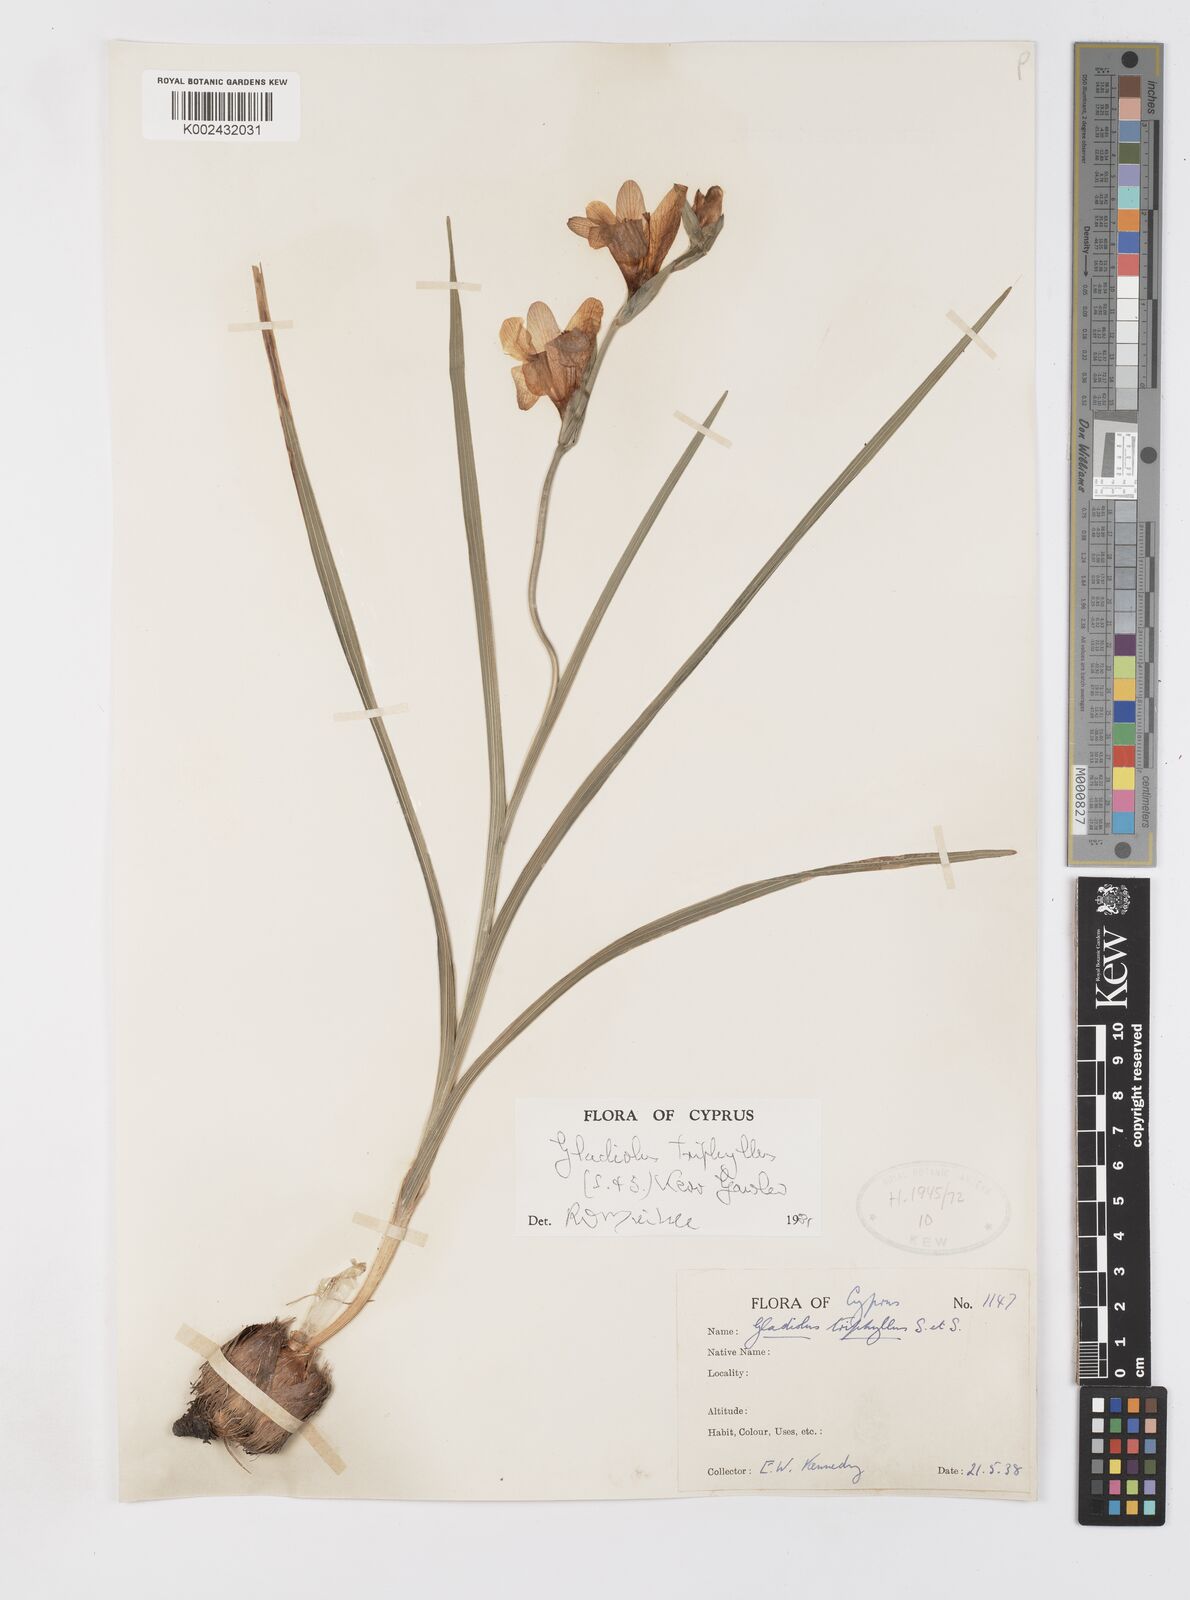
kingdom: Plantae
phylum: Tracheophyta
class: Liliopsida
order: Asparagales
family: Iridaceae
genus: Gladiolus
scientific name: Gladiolus triphyllus
